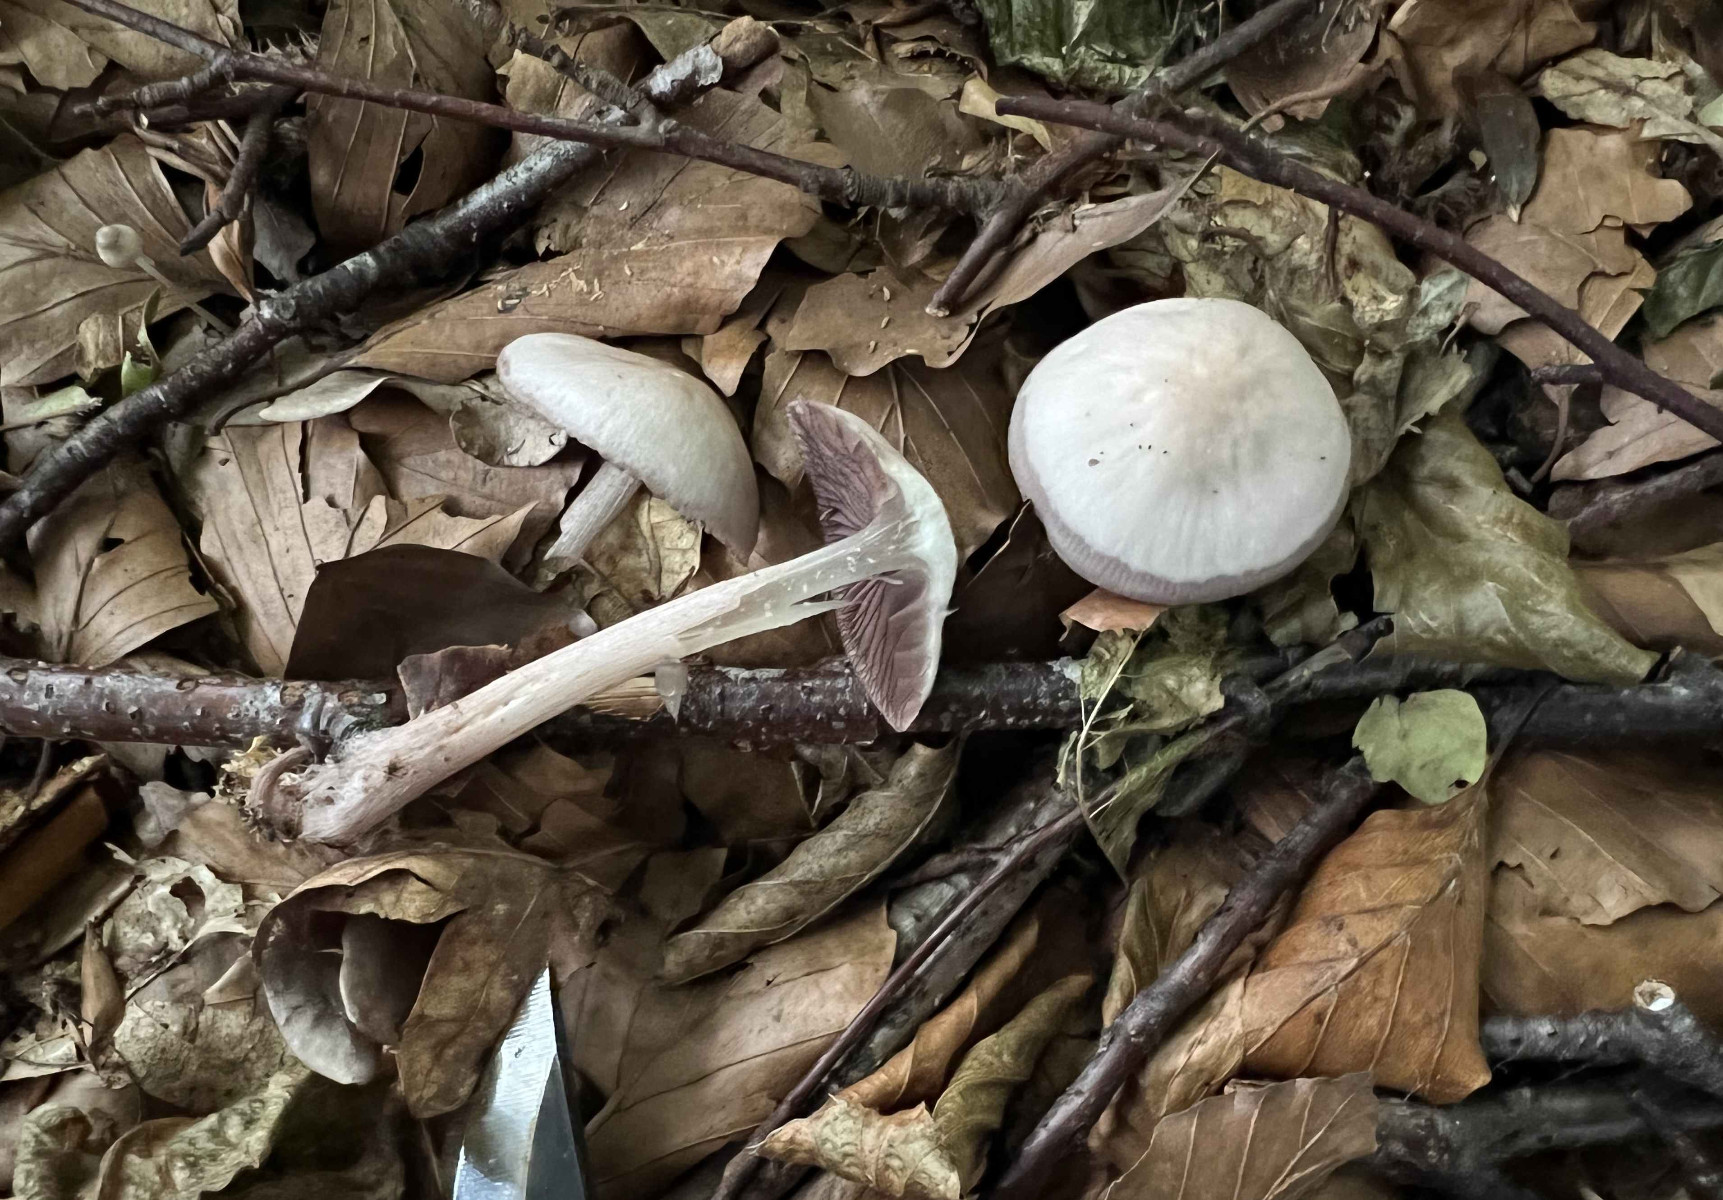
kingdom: Fungi
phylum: Basidiomycota
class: Agaricomycetes
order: Agaricales
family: Mycenaceae
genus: Mycena
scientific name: Mycena pelianthina
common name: mørkbladet huesvamp
